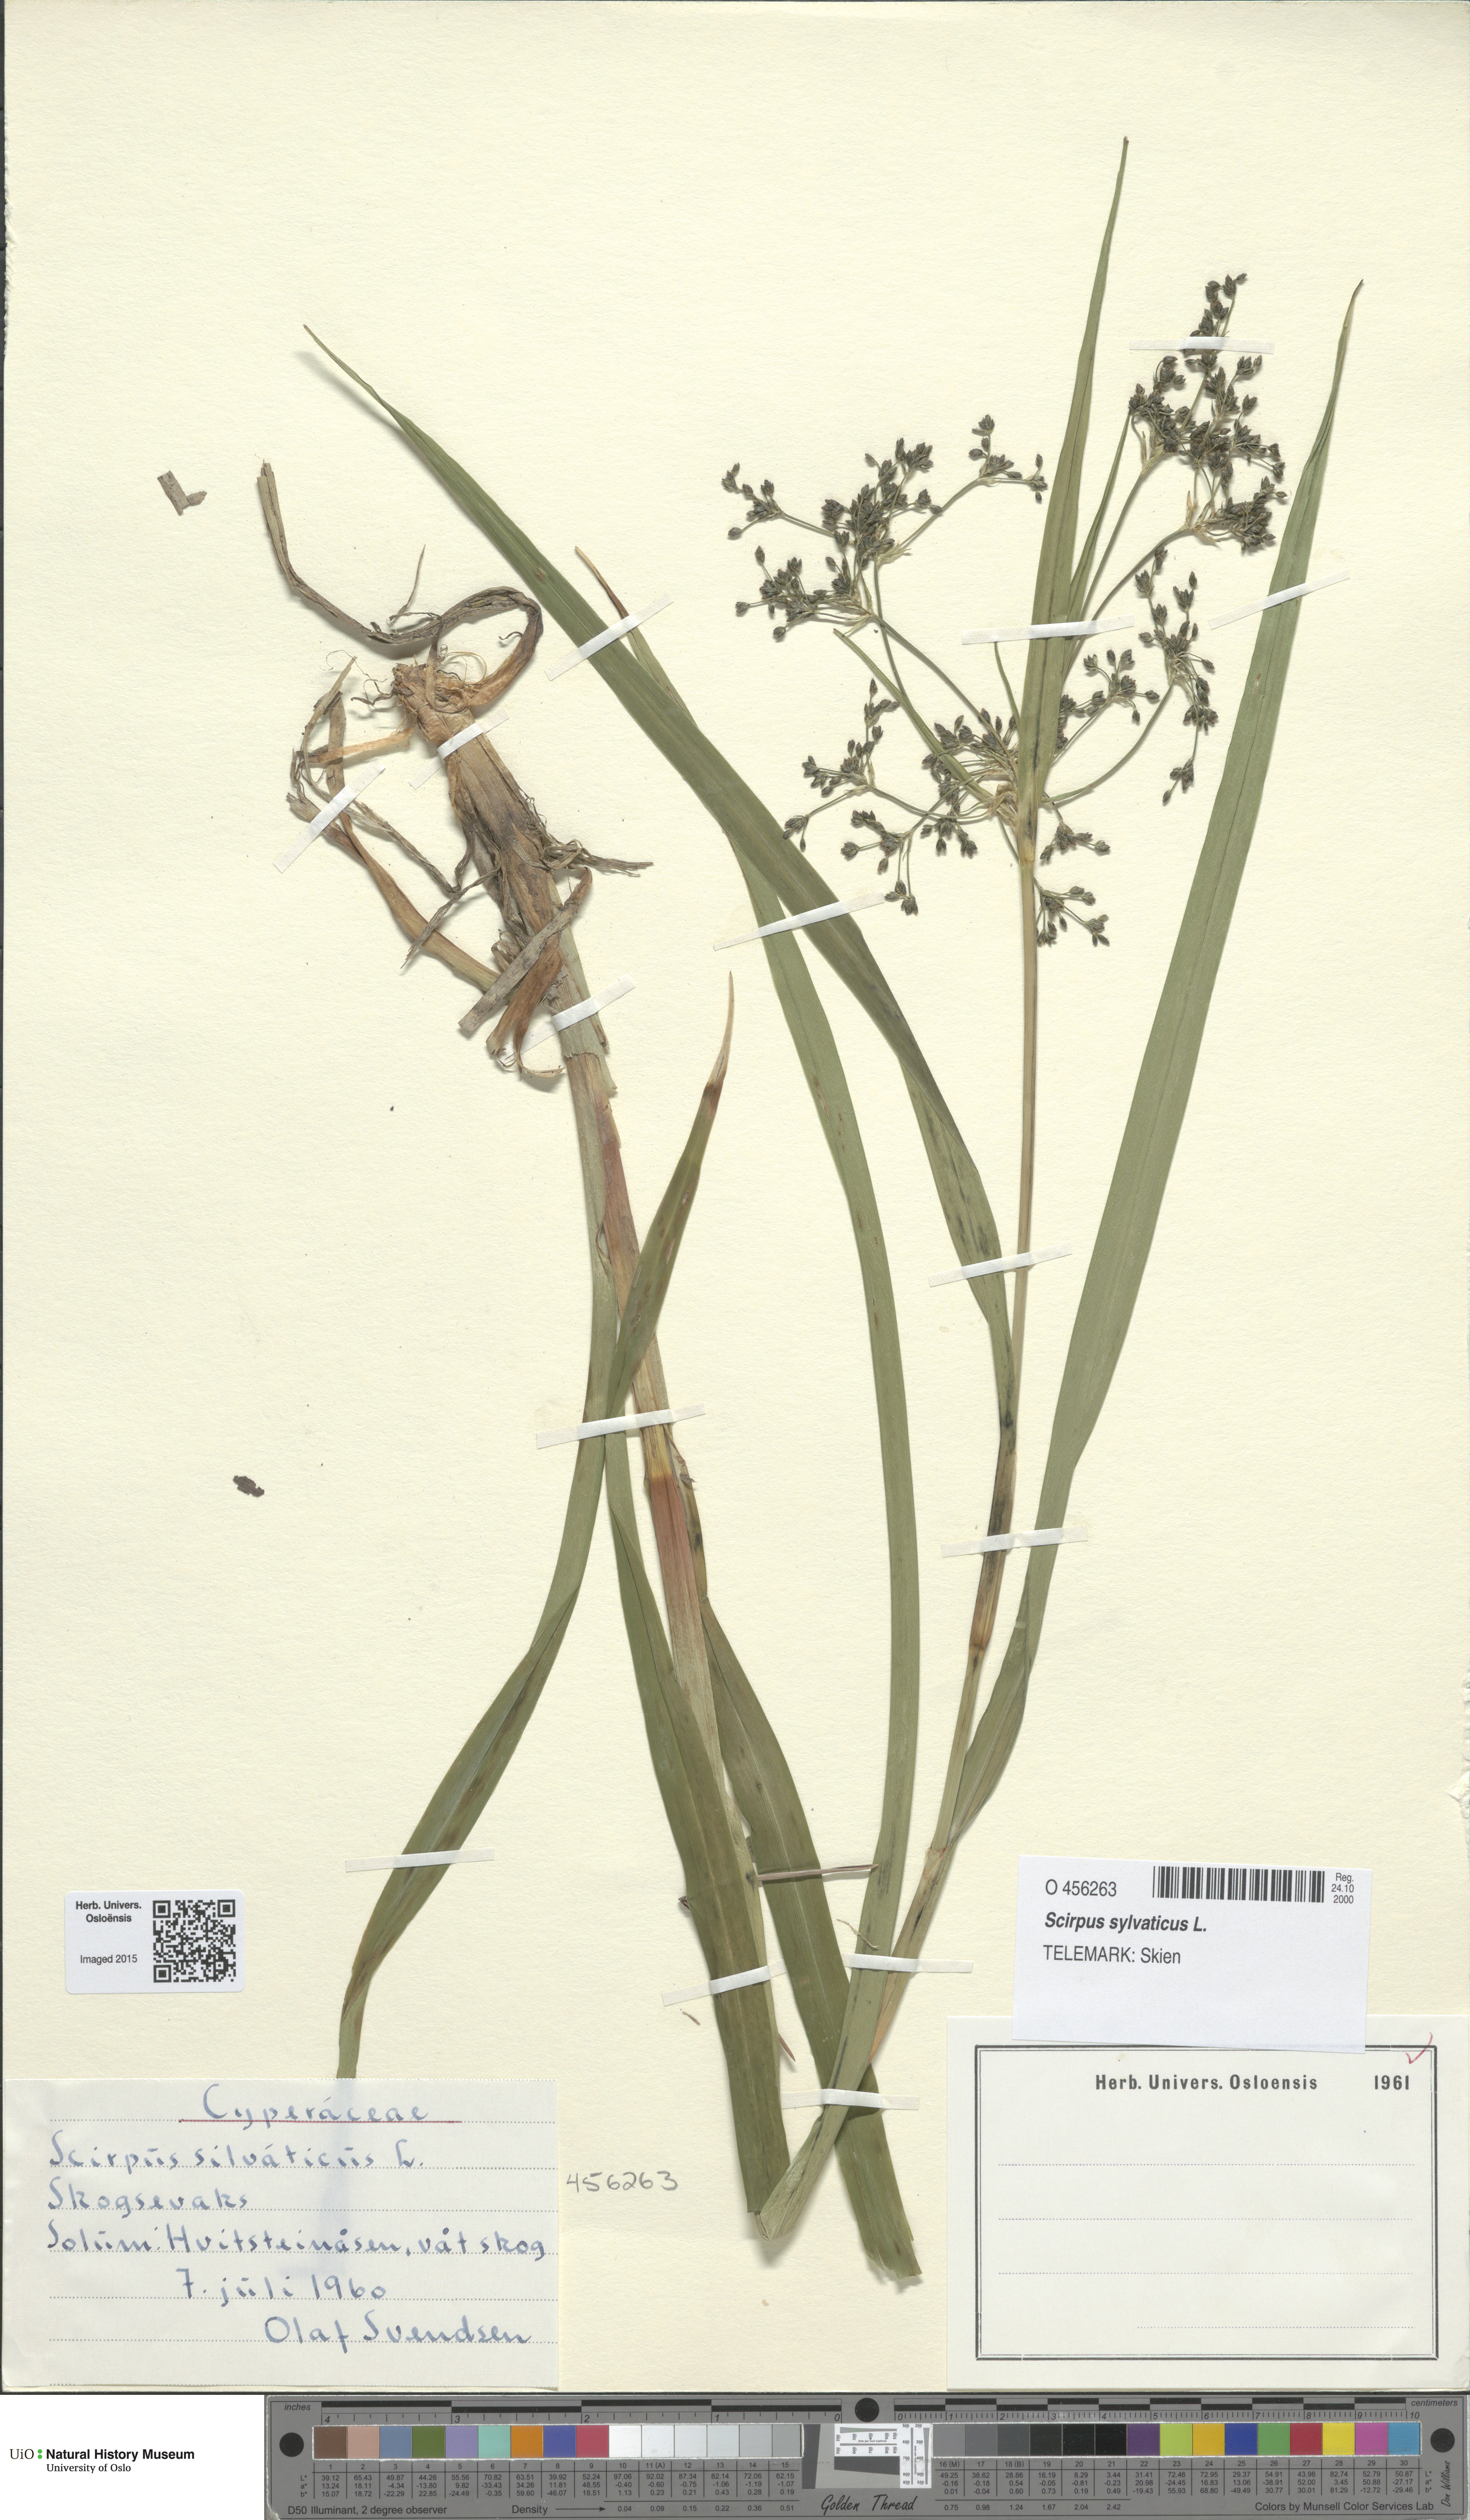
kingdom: Plantae
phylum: Tracheophyta
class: Liliopsida
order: Poales
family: Cyperaceae
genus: Scirpus
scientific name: Scirpus sylvaticus
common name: Wood club-rush
